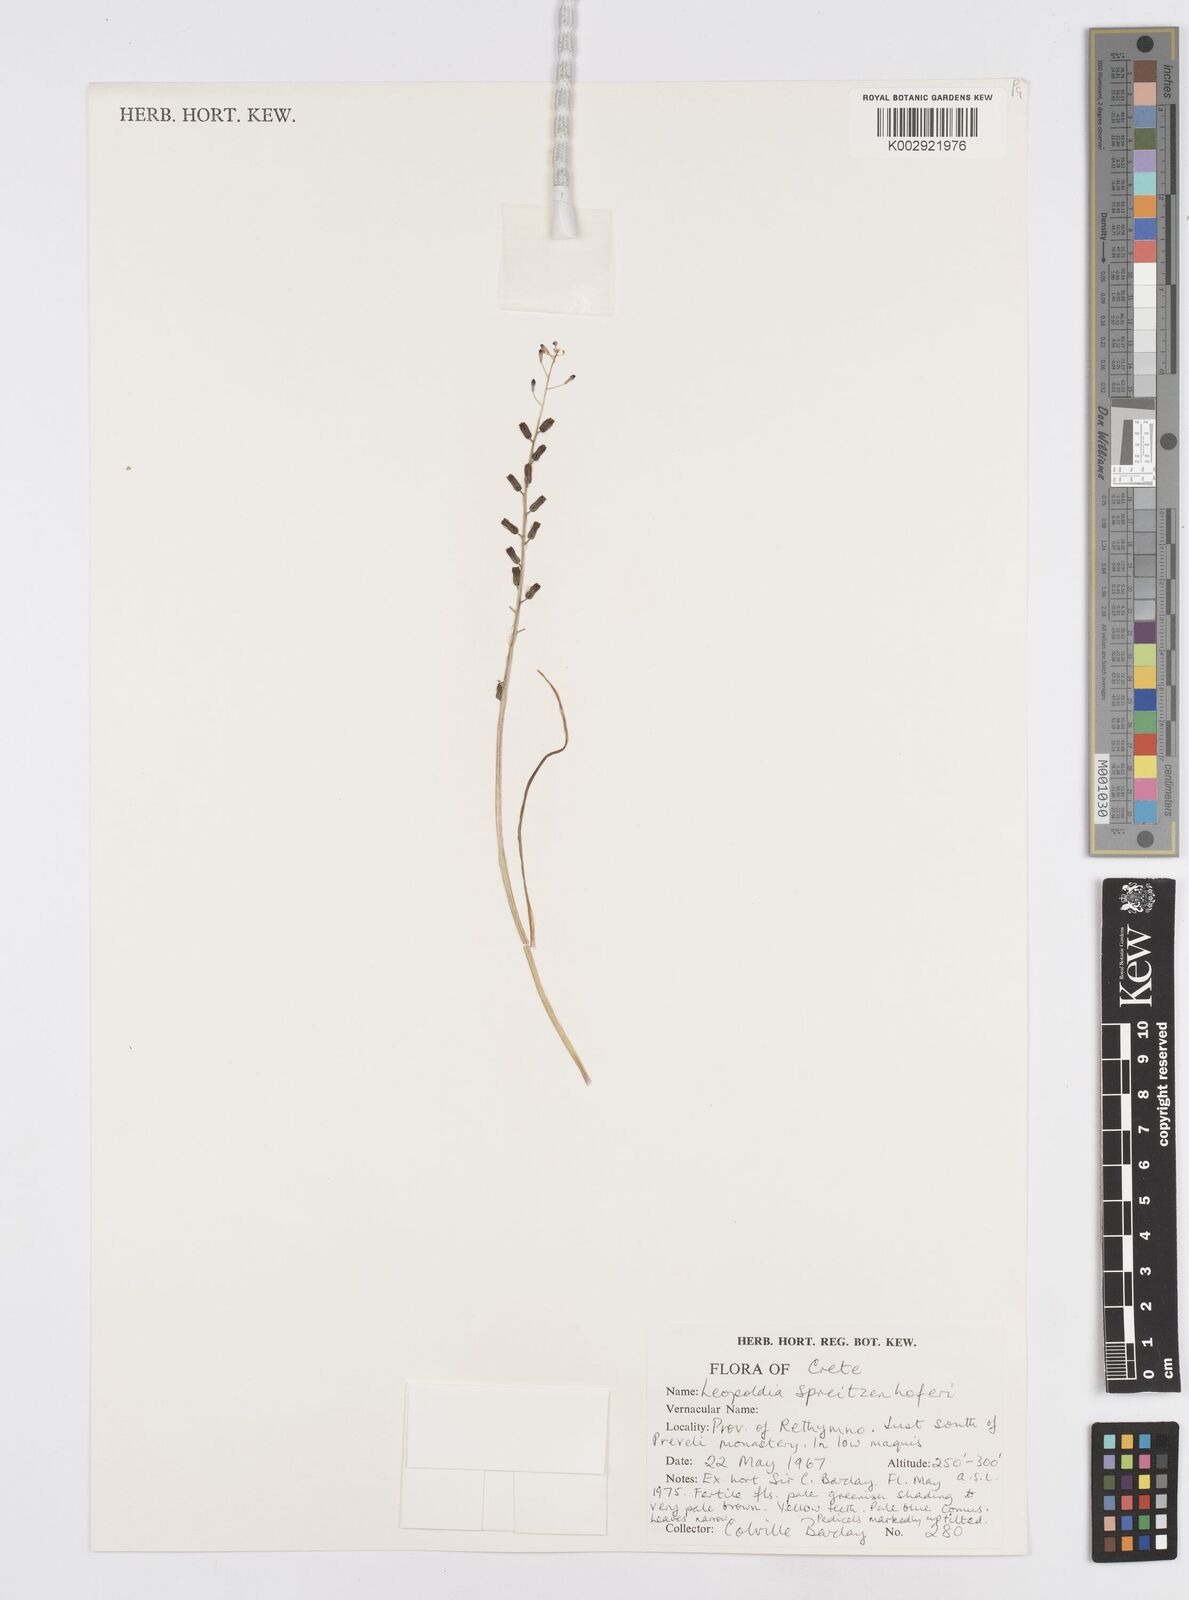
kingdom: Plantae
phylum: Tracheophyta
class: Liliopsida
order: Asparagales
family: Asparagaceae
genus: Muscari
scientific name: Muscari spreitzenhoferi
